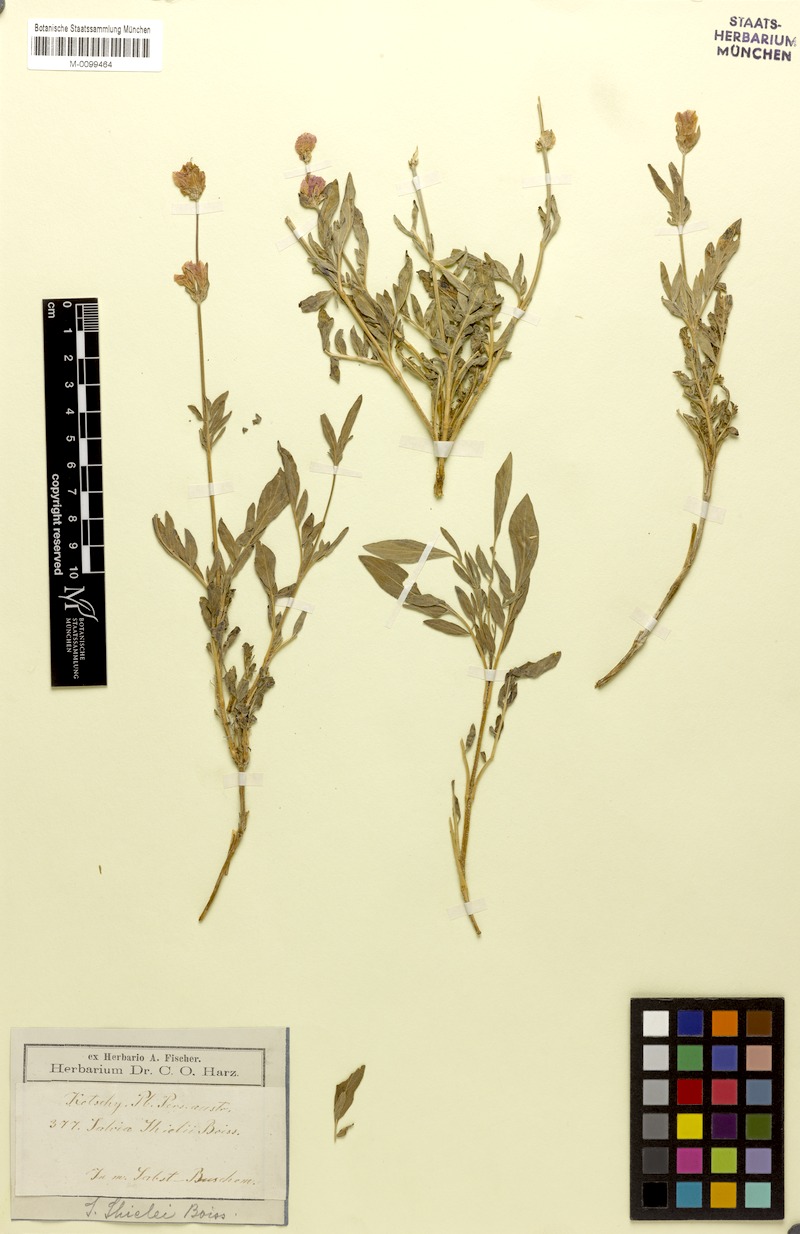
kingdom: Plantae
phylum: Tracheophyta
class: Magnoliopsida
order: Lamiales
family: Lamiaceae
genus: Salvia
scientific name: Salvia hydrangea
